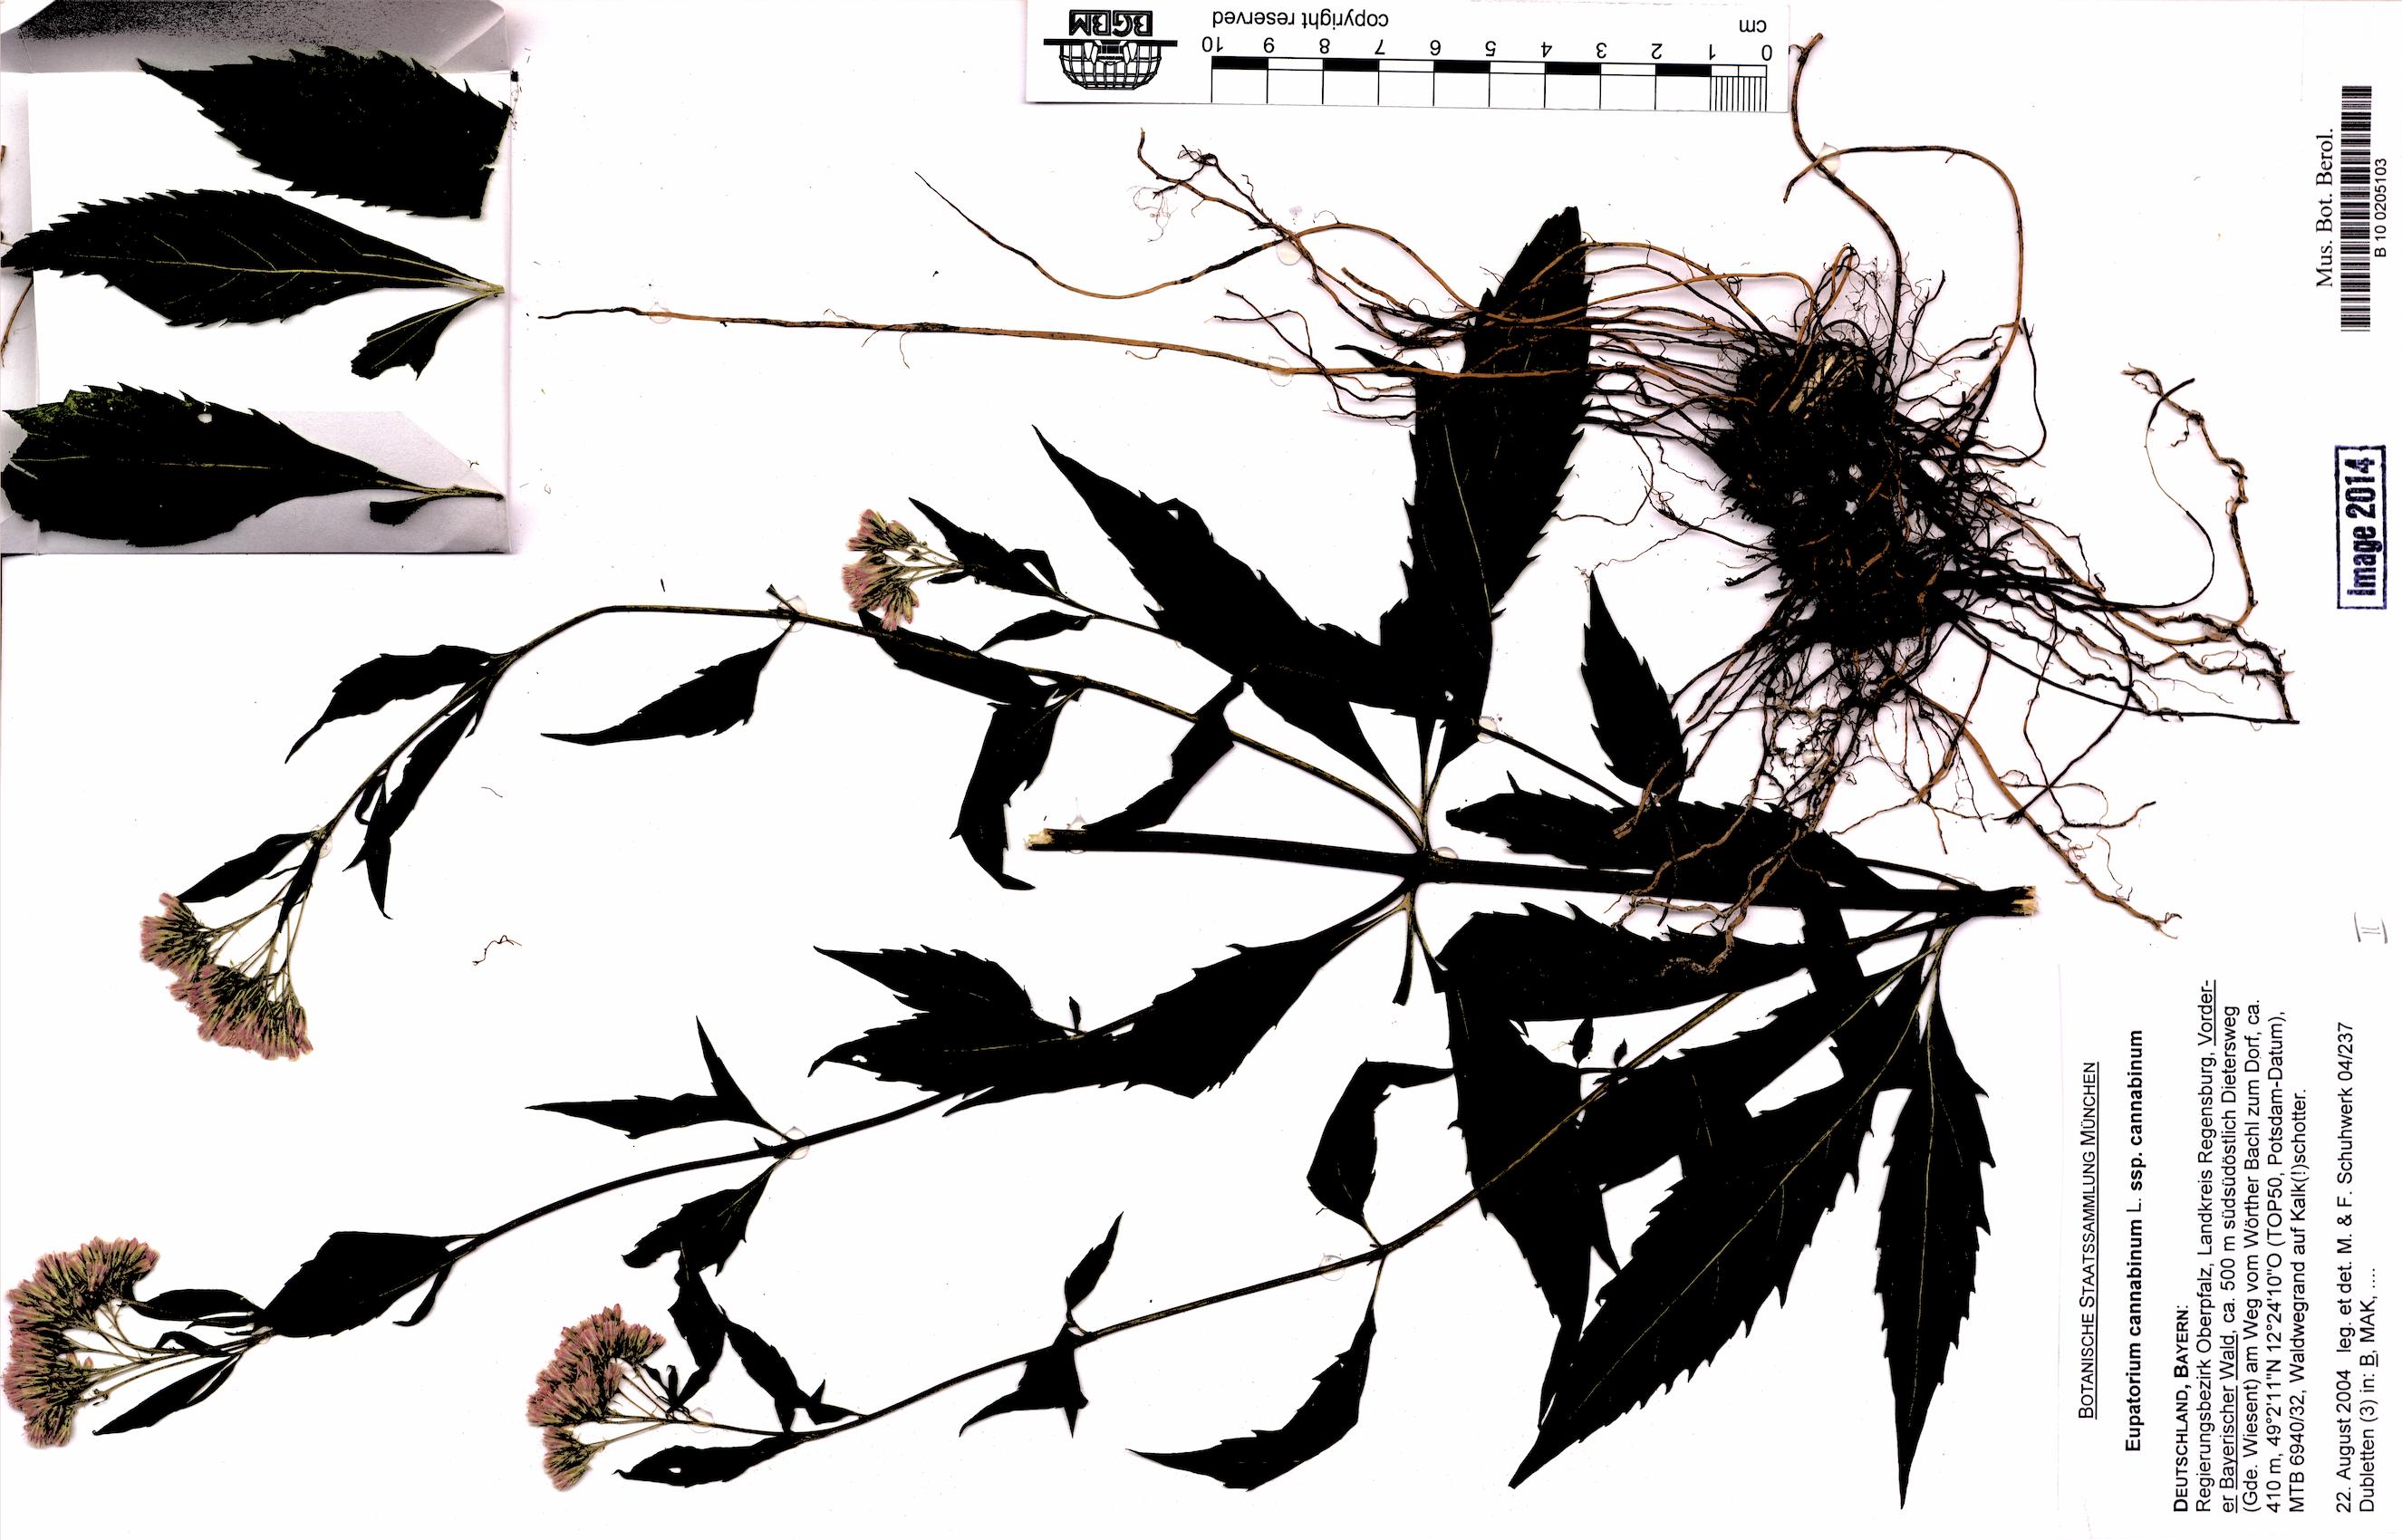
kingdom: Plantae
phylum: Tracheophyta
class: Magnoliopsida
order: Asterales
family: Asteraceae
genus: Eupatorium
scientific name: Eupatorium cannabinum
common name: Hemp-agrimony
